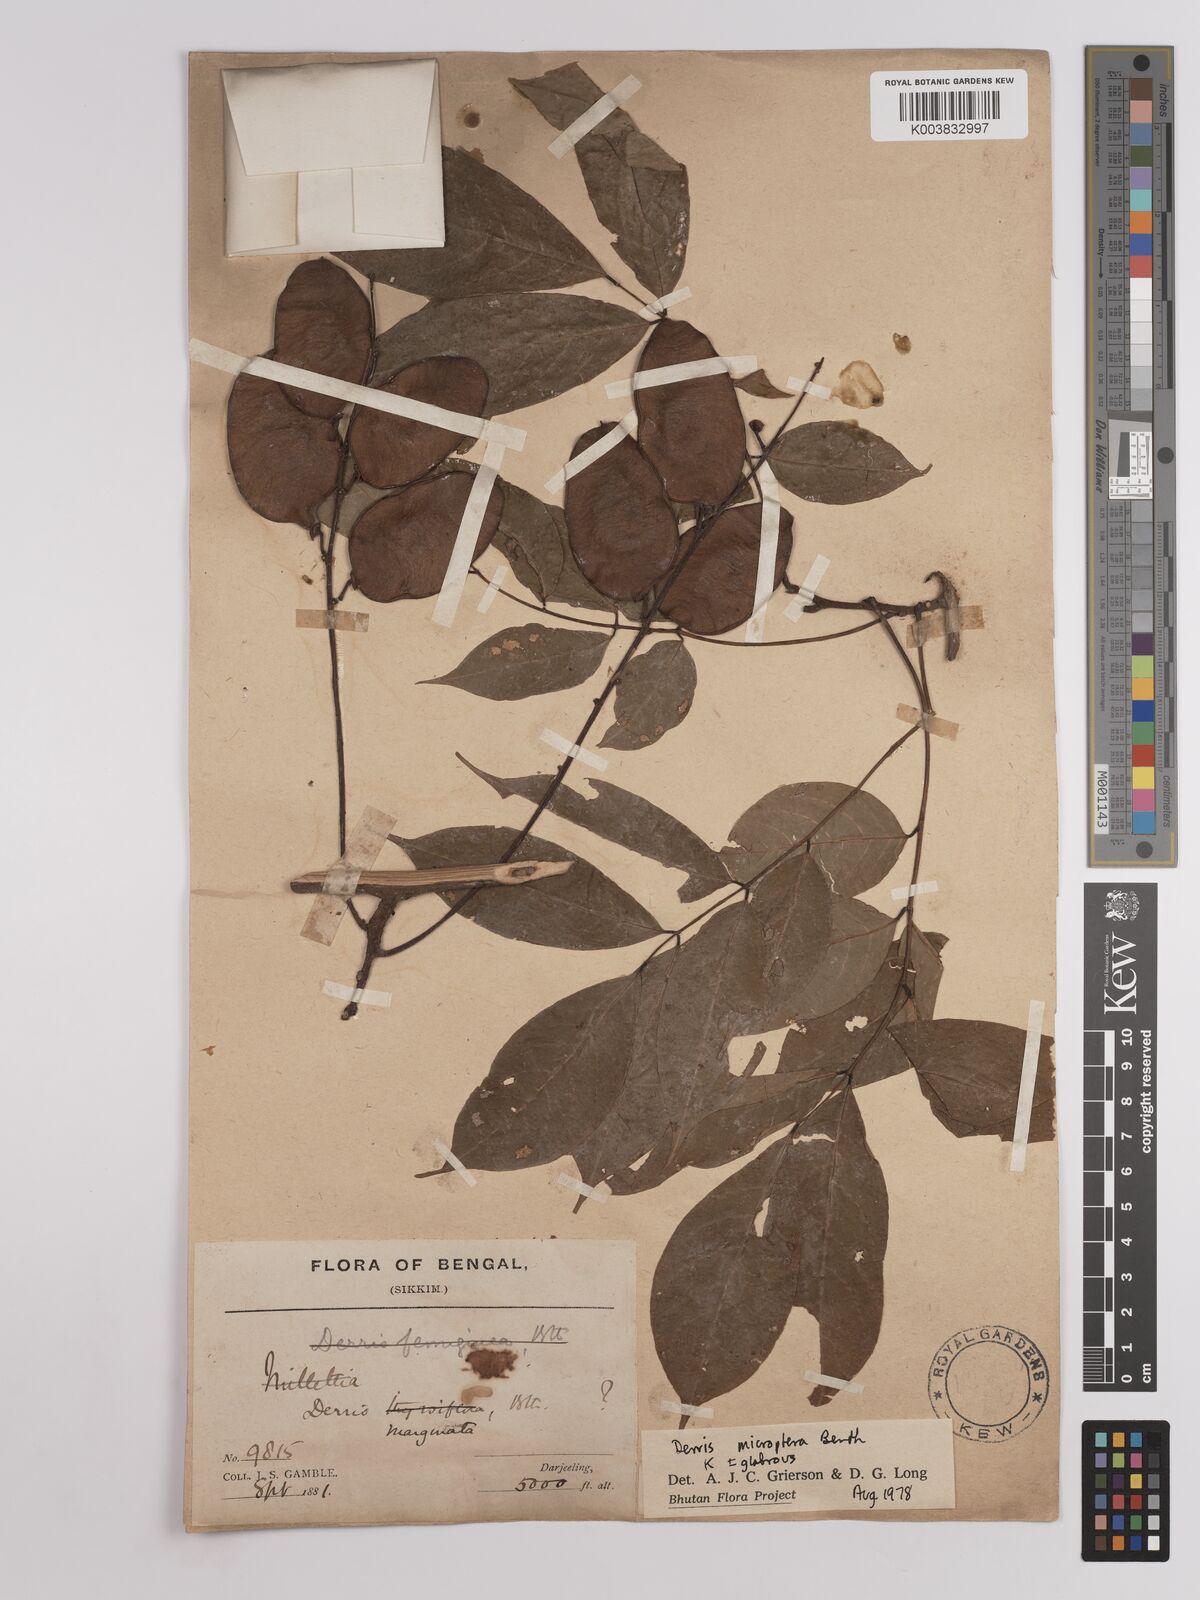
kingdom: Plantae
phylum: Tracheophyta
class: Magnoliopsida
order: Fabales
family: Fabaceae
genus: Derris
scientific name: Derris monticola
